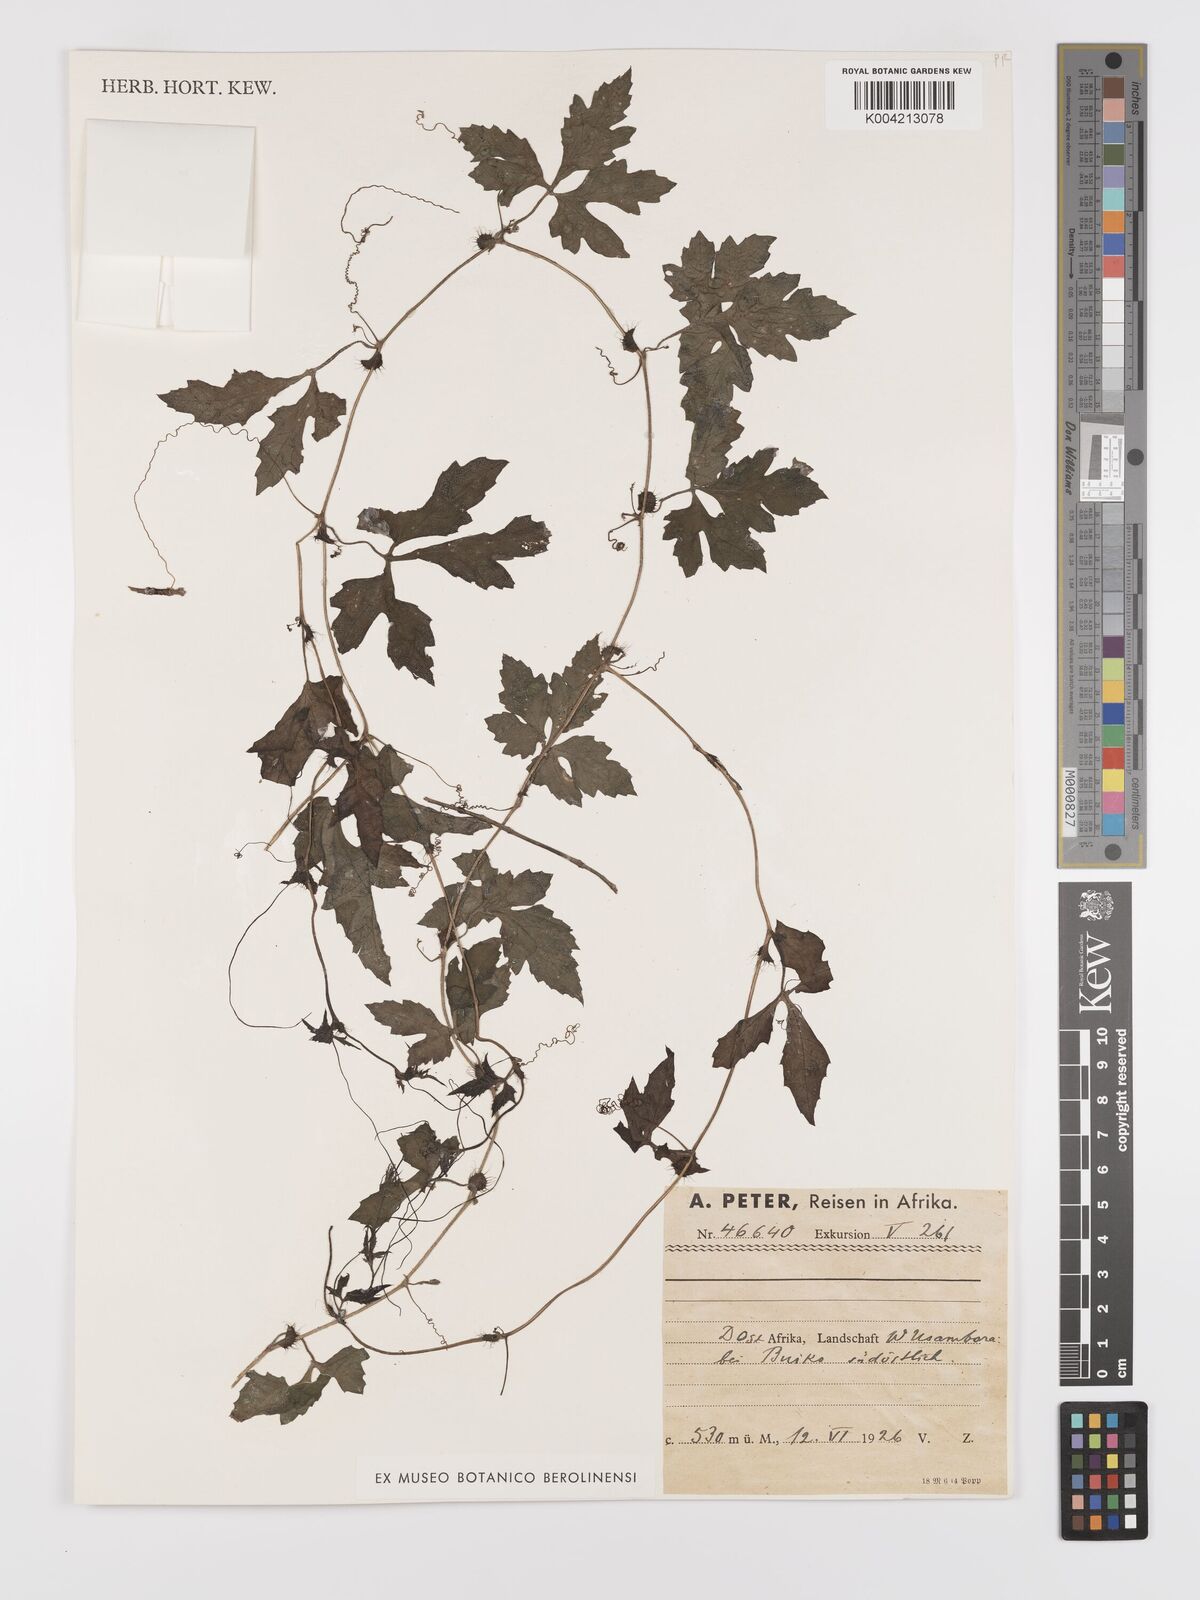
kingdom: Plantae
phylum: Tracheophyta
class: Magnoliopsida
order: Cucurbitales
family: Cucurbitaceae
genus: Blastania
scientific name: Blastania cerasiformis
